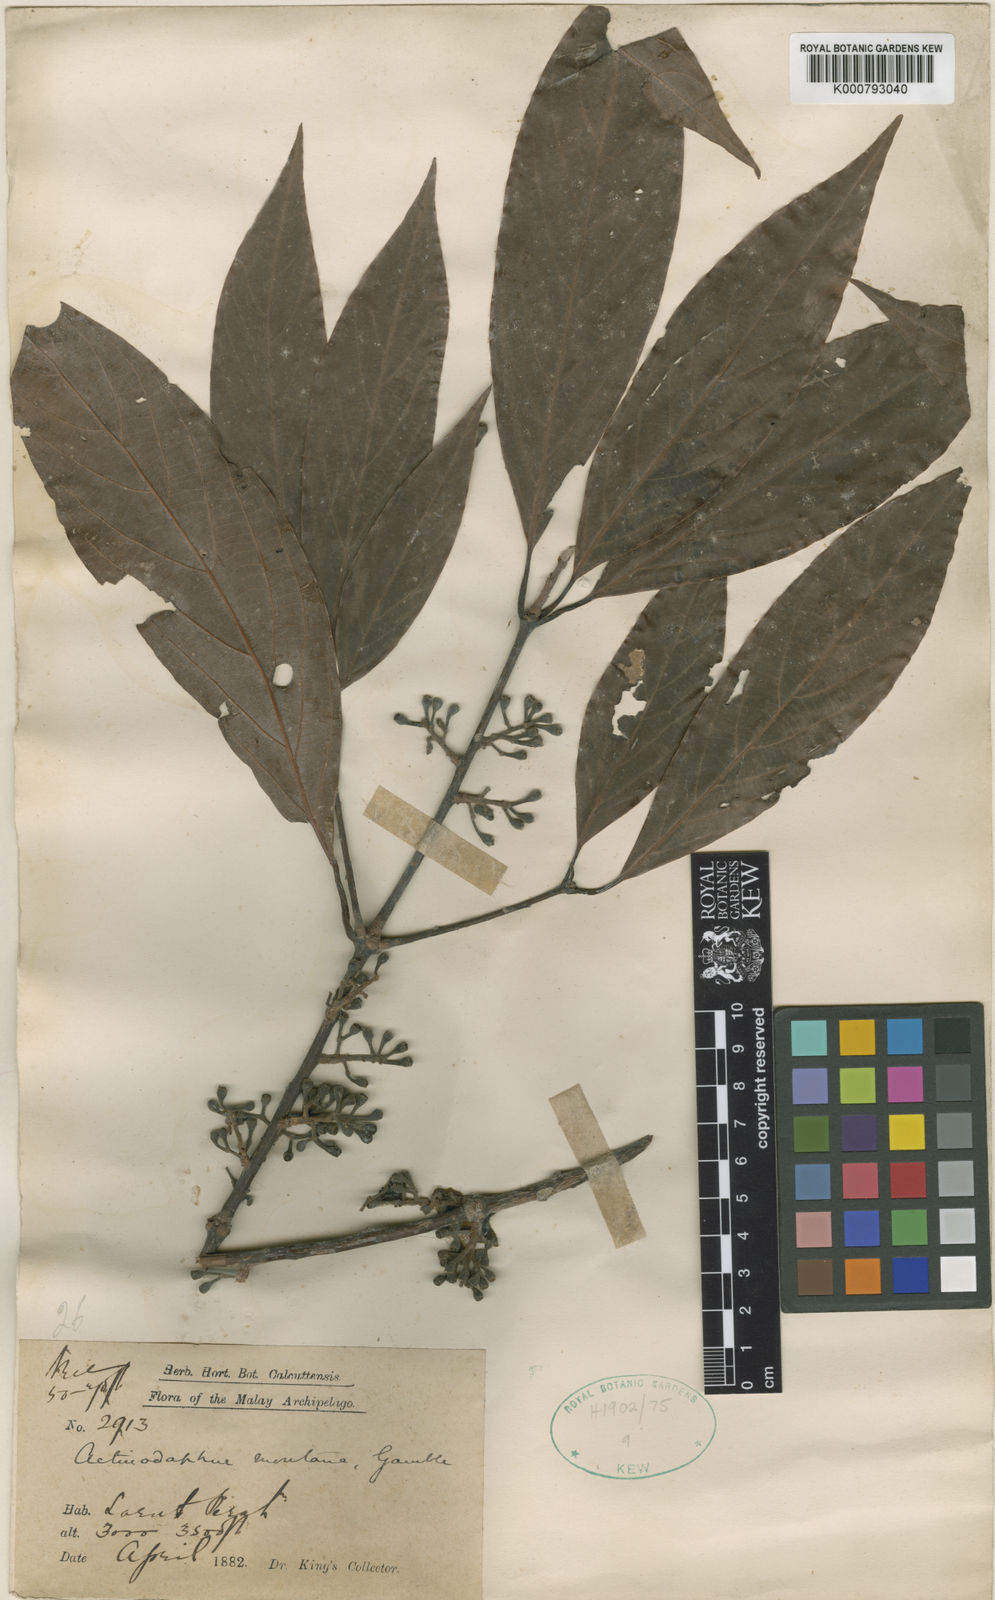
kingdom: Plantae
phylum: Tracheophyta
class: Magnoliopsida
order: Laurales
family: Lauraceae
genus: Actinodaphne
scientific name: Actinodaphne montana
